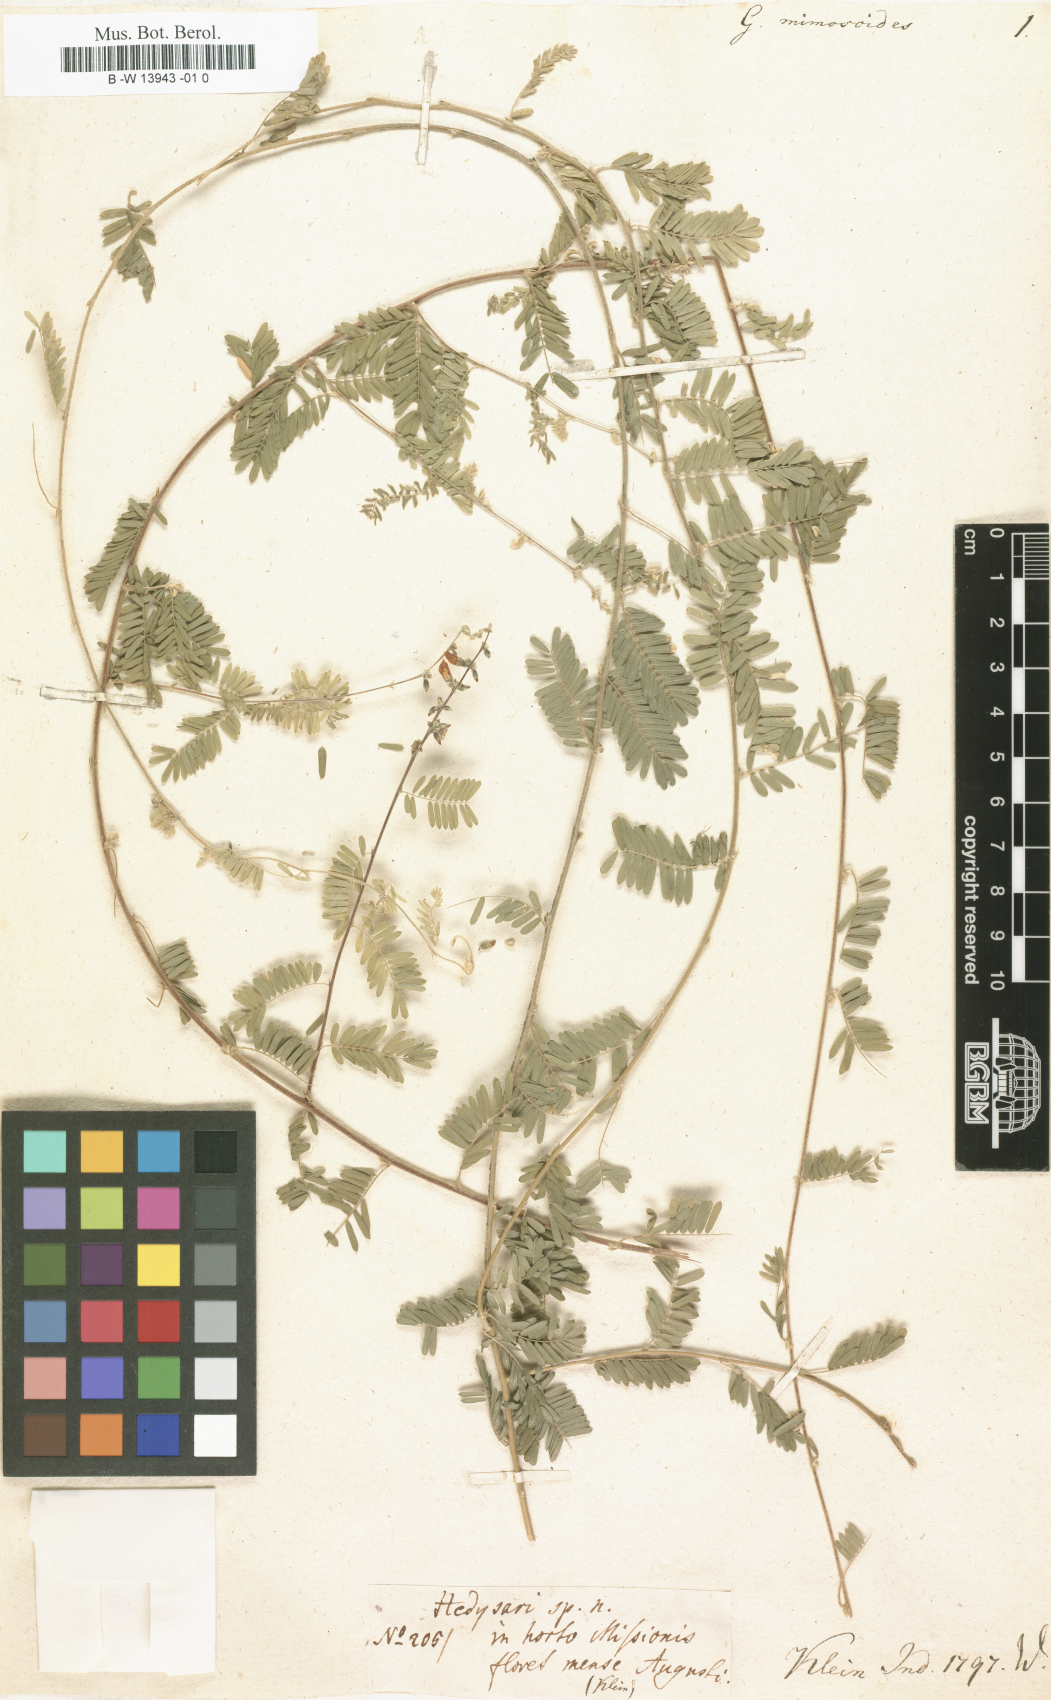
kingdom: Plantae
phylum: Tracheophyta
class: Magnoliopsida
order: Fabales
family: Fabaceae
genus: Leucaena
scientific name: Leucaena leucocephala
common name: White leadtree
